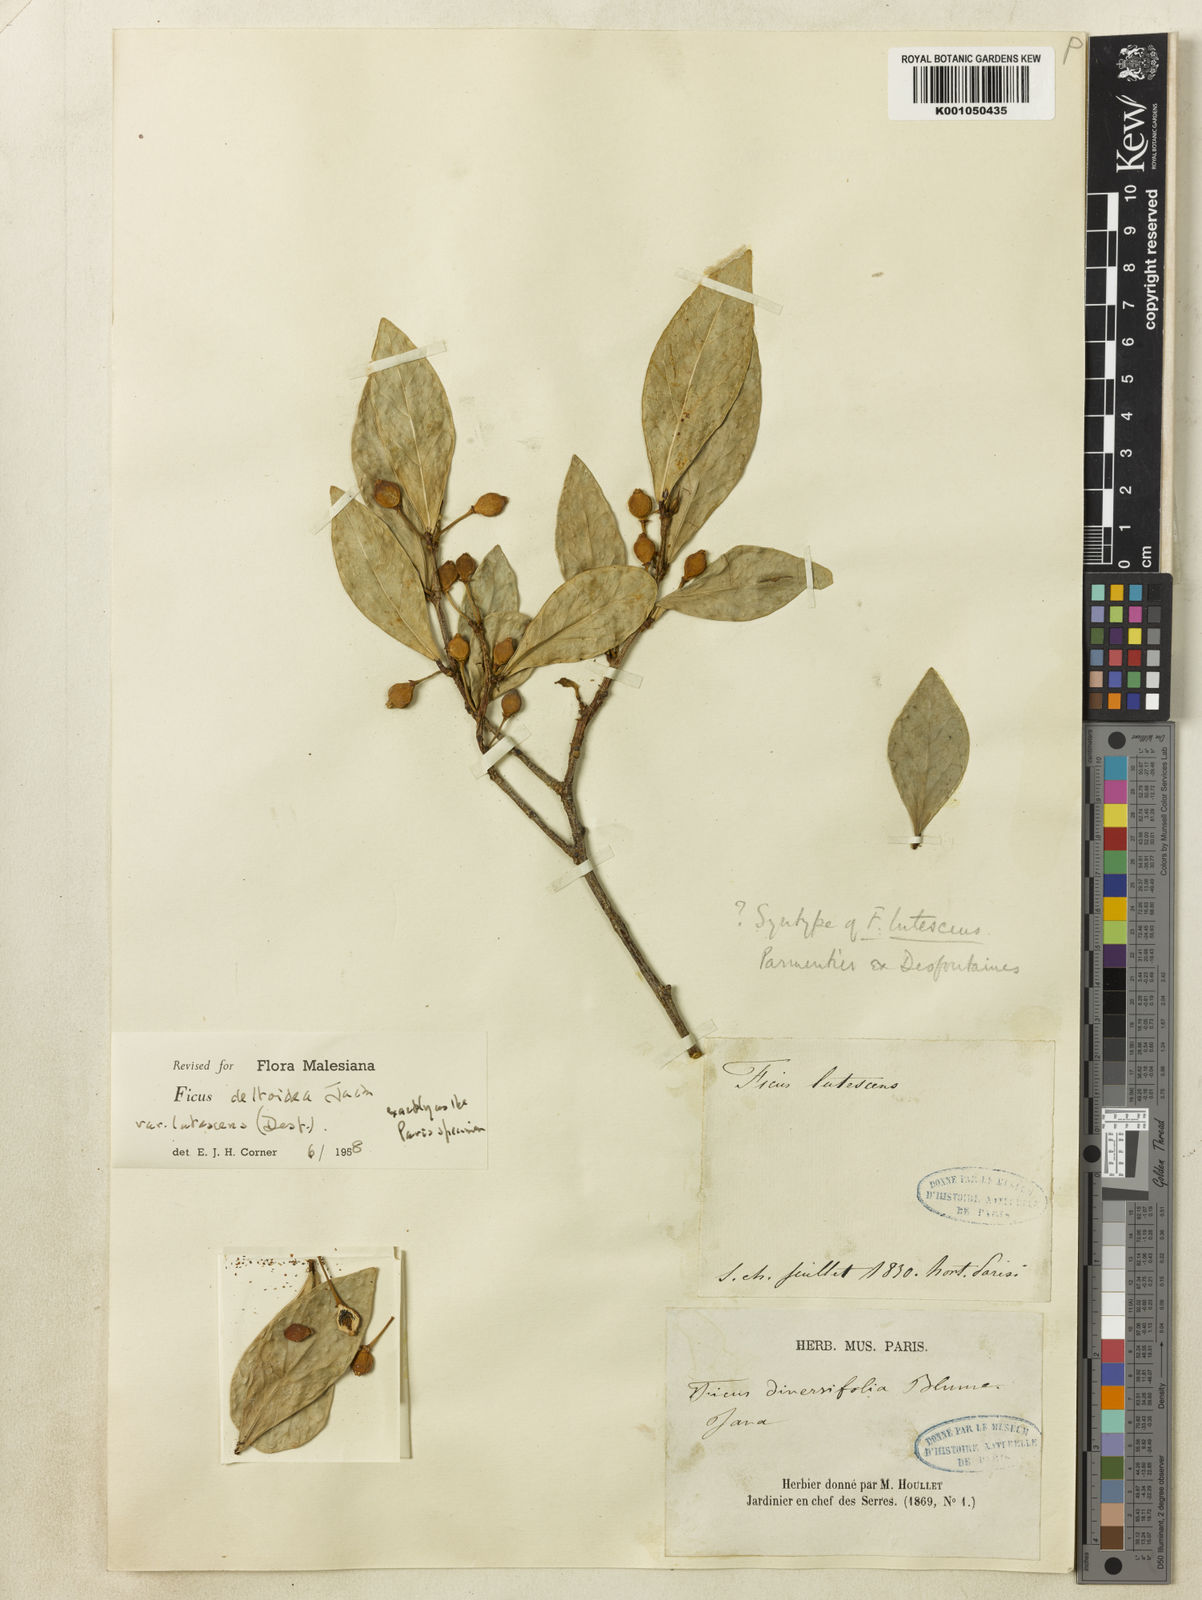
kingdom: Plantae
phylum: Tracheophyta
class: Magnoliopsida
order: Rosales
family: Moraceae
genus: Ficus
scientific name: Ficus deltoidea
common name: Mistletoe fig
